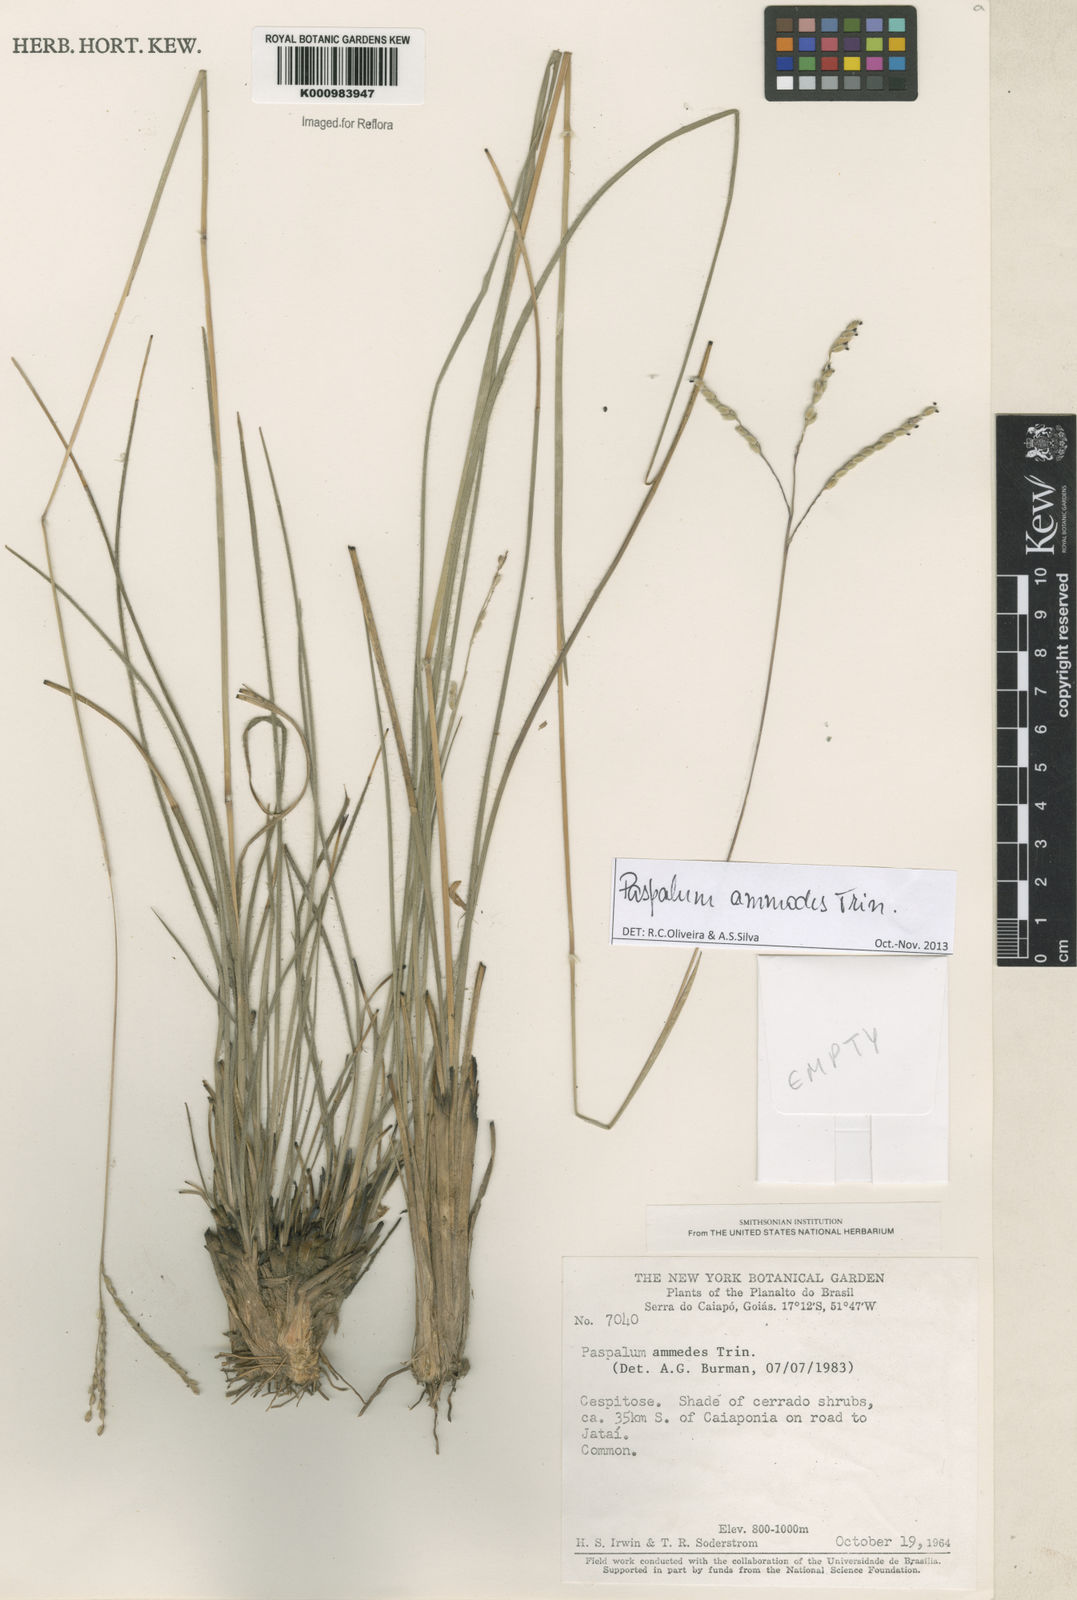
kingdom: Plantae
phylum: Tracheophyta
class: Liliopsida
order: Poales
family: Poaceae
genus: Paspalum
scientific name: Paspalum ammodes
